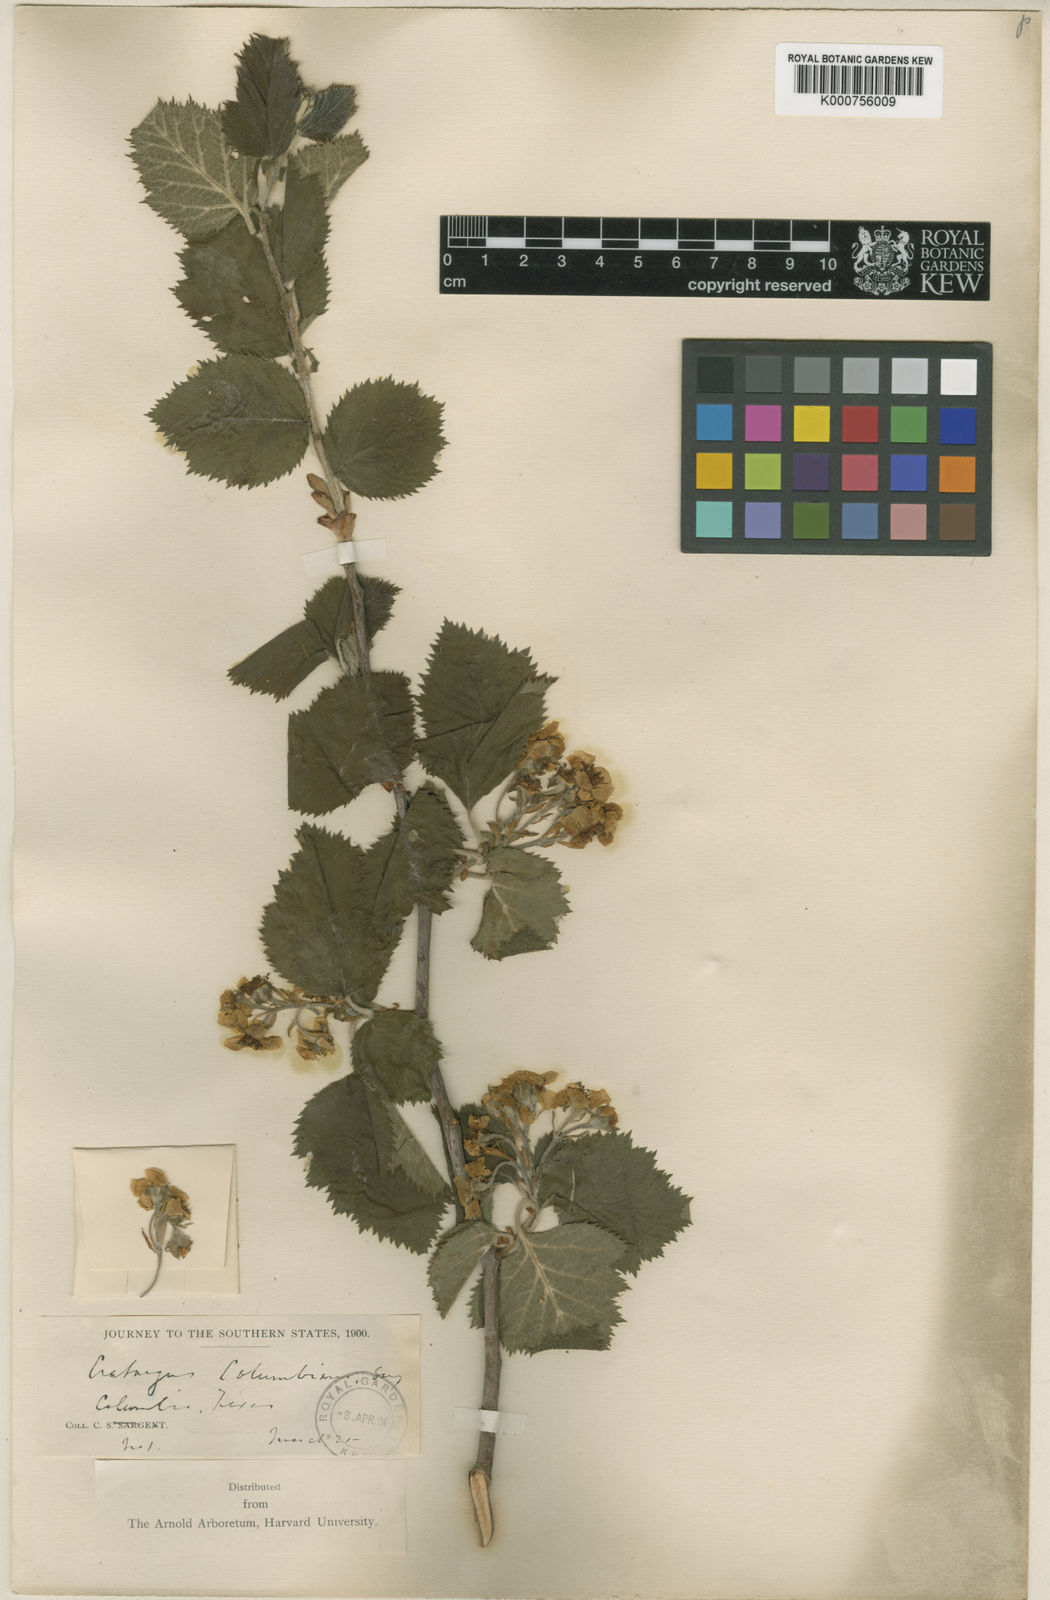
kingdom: Plantae
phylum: Tracheophyta
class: Magnoliopsida
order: Rosales
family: Rosaceae
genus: Crataegus
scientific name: Crataegus columbiana
